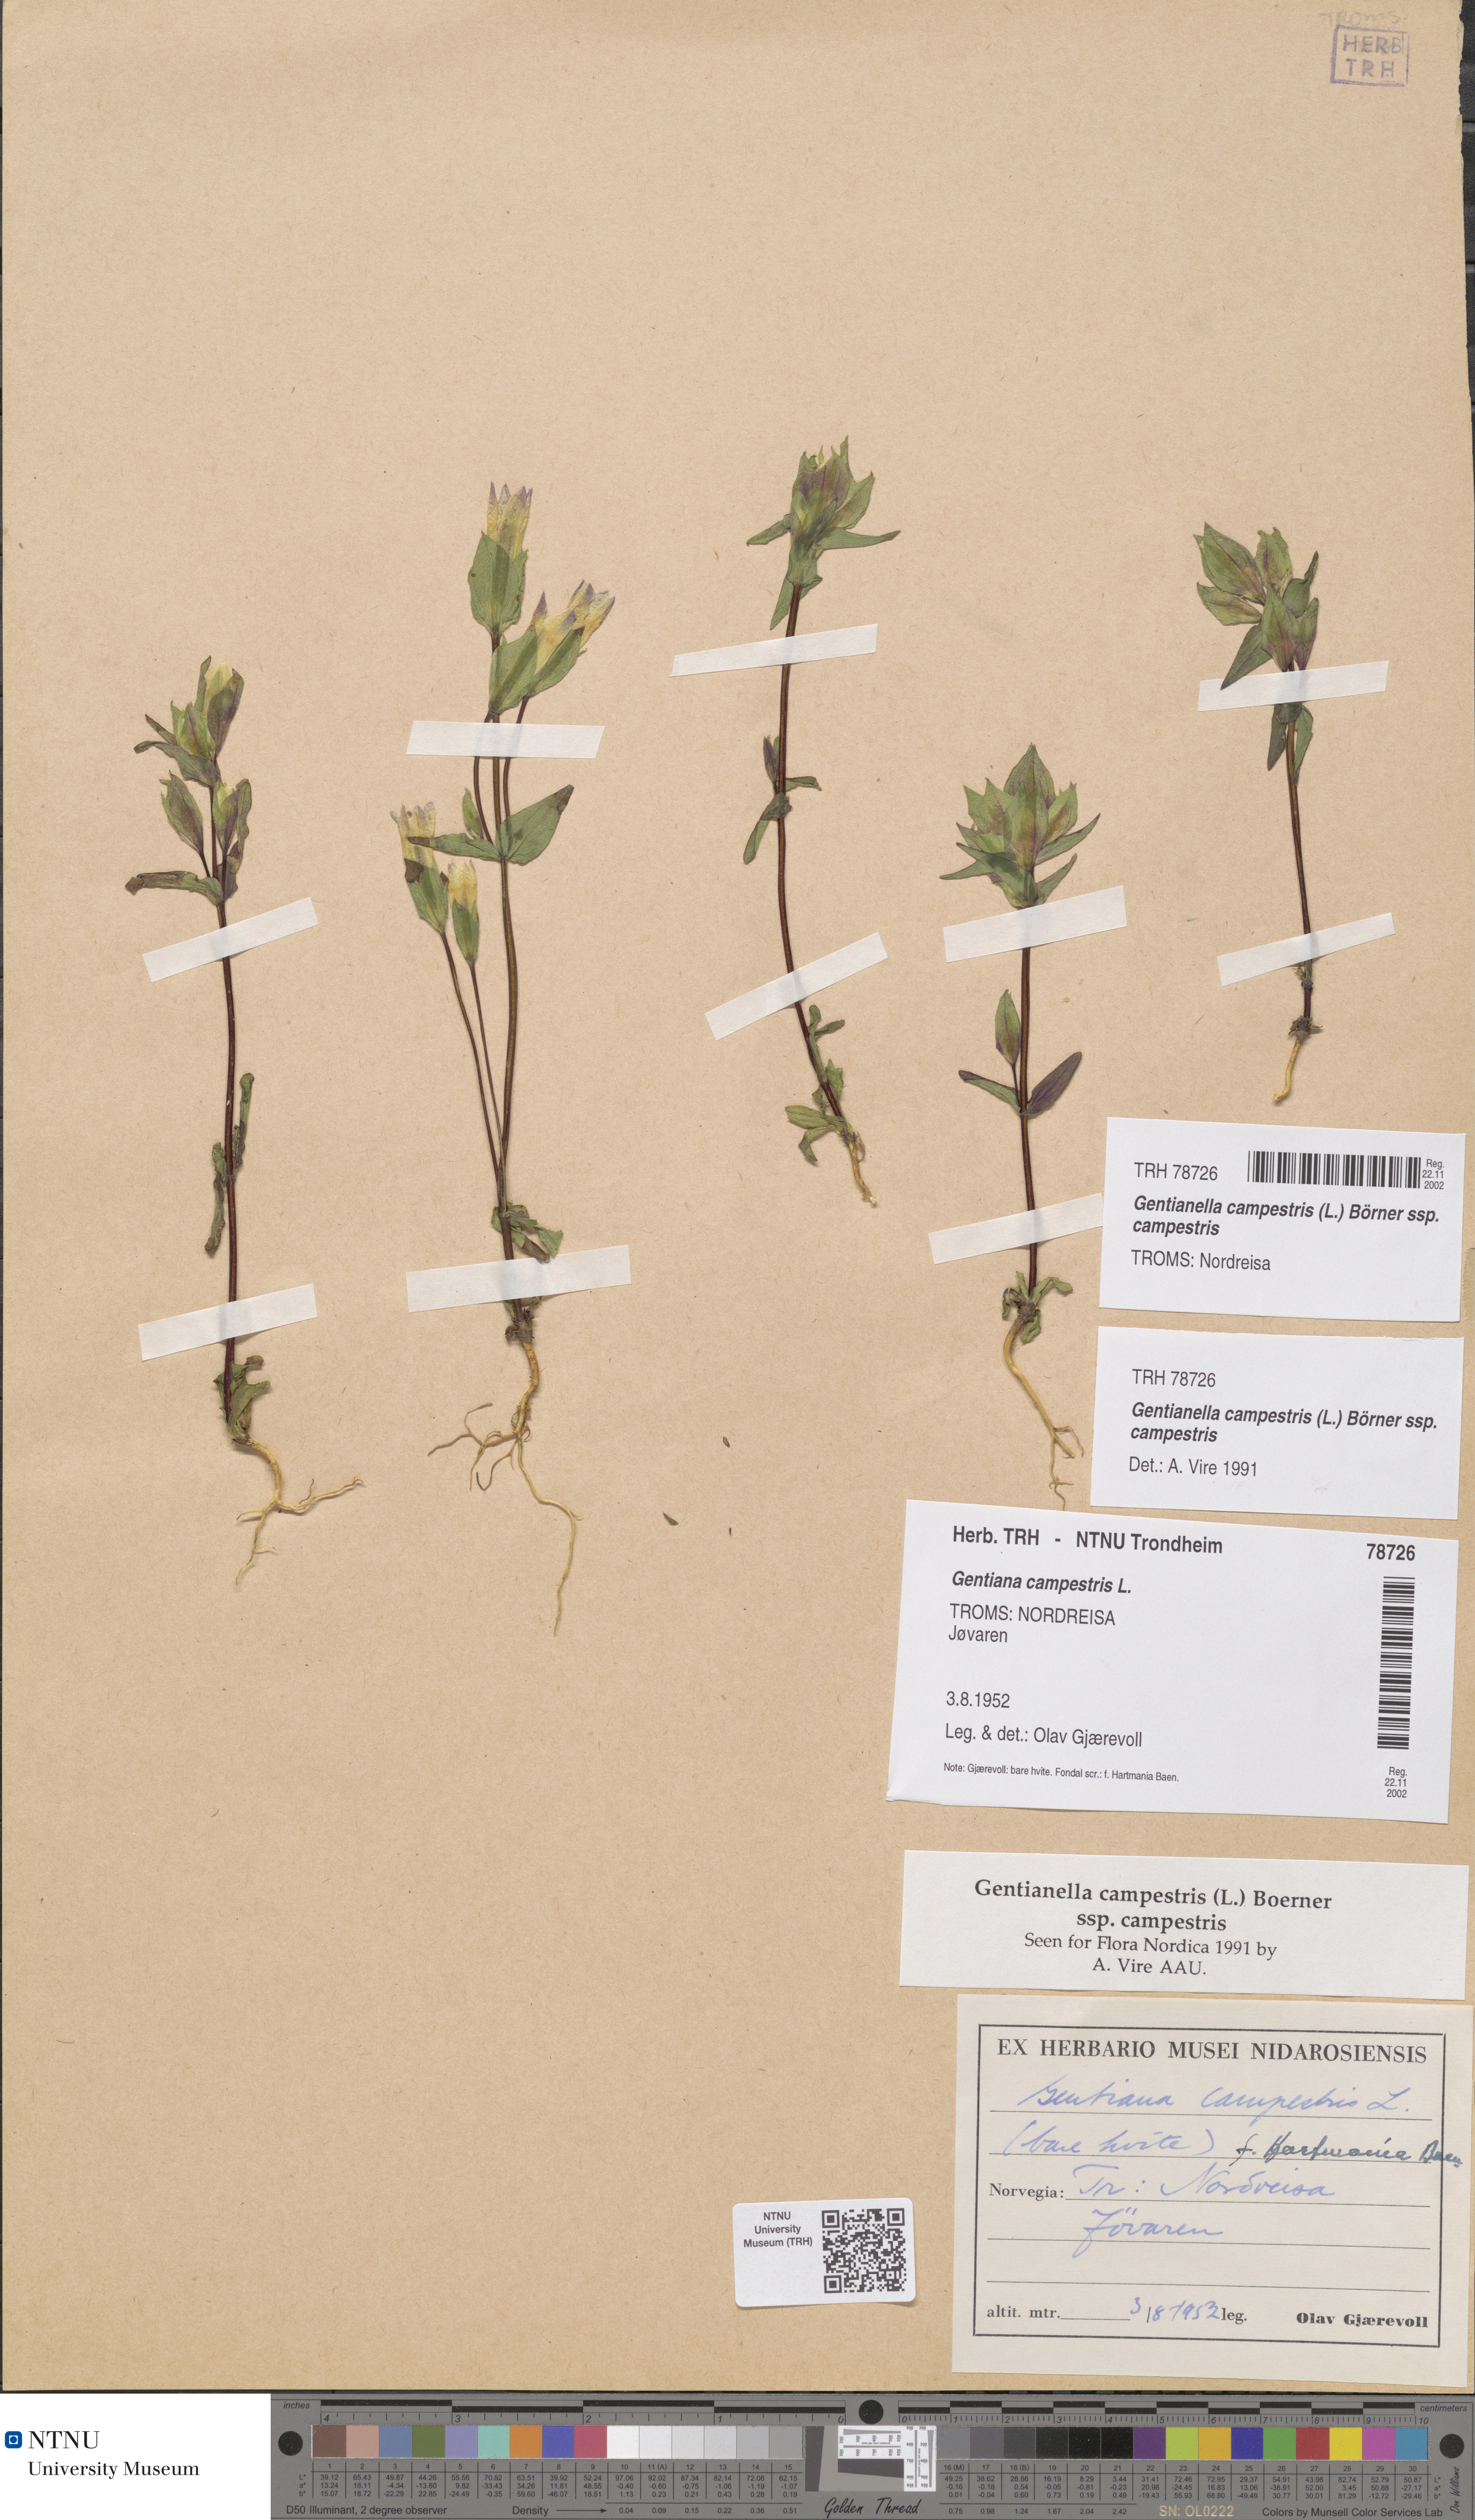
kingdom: Plantae
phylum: Tracheophyta
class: Magnoliopsida
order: Gentianales
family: Gentianaceae
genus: Gentianella
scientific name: Gentianella campestris
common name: Field gentian
